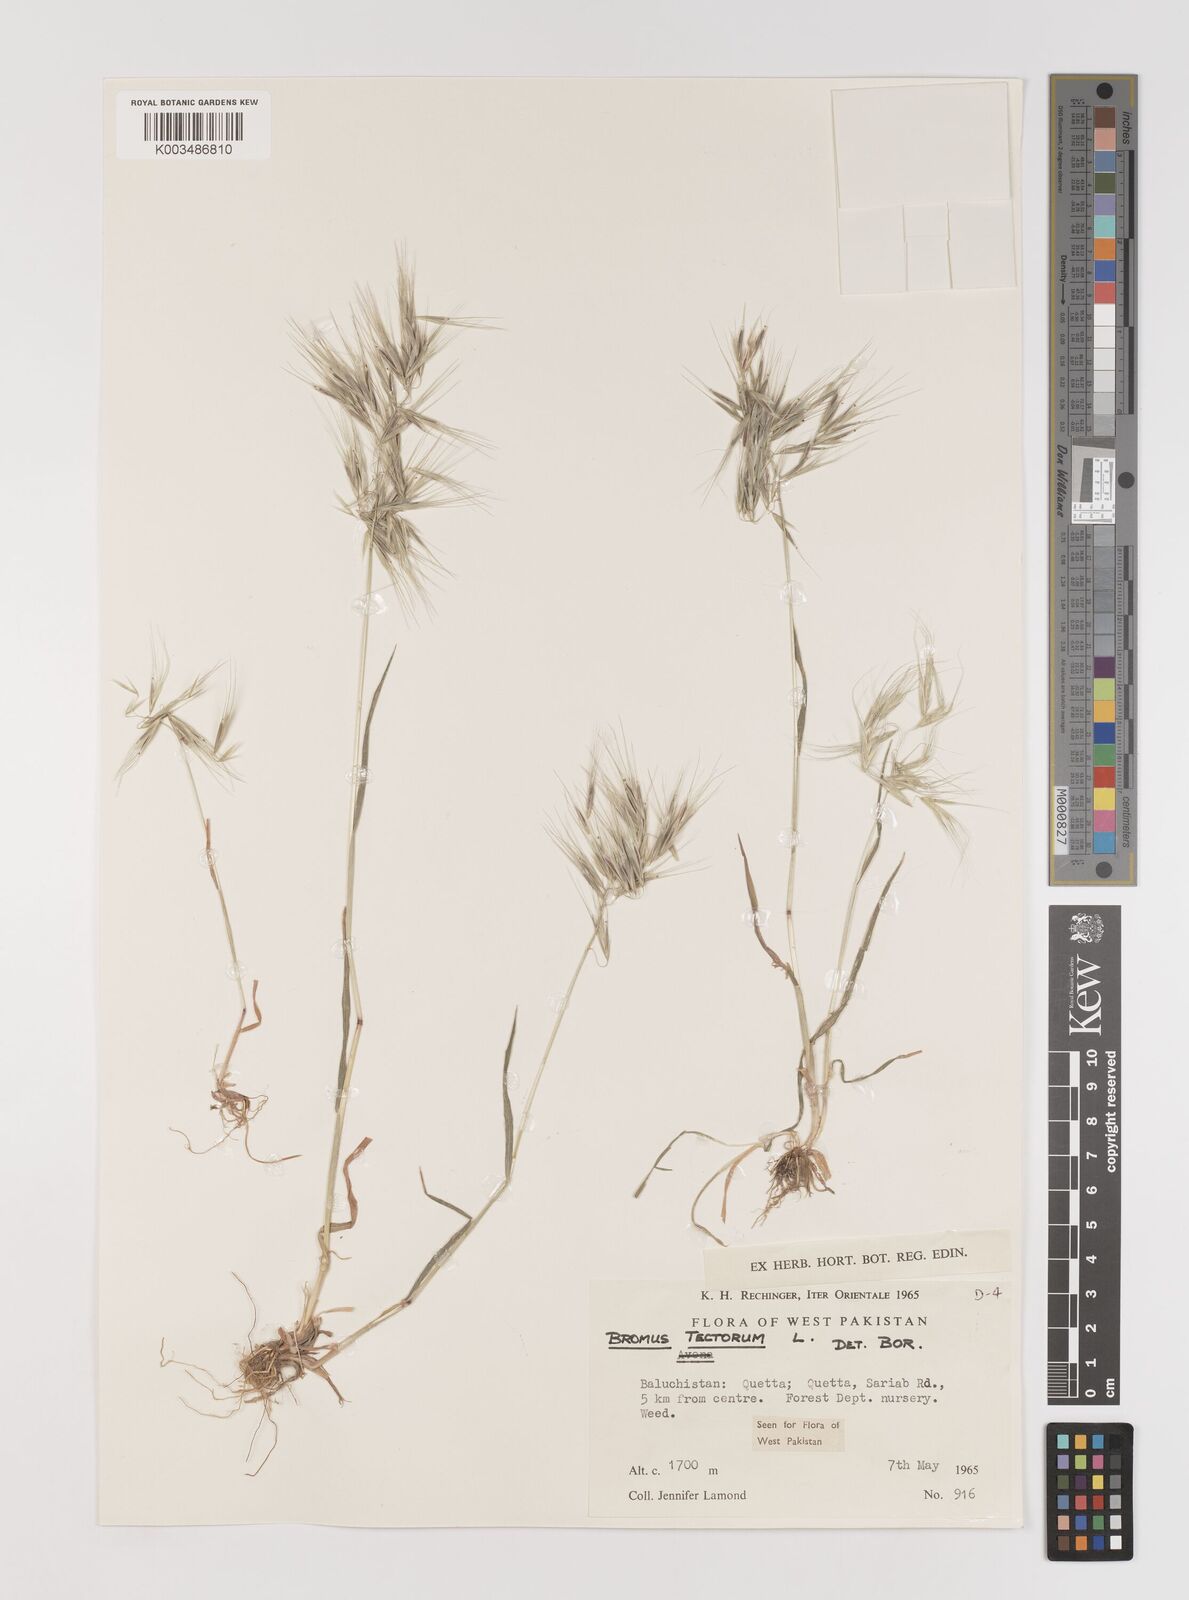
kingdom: Plantae
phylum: Tracheophyta
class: Liliopsida
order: Poales
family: Poaceae
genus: Bromus
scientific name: Bromus tectorum
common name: Cheatgrass
